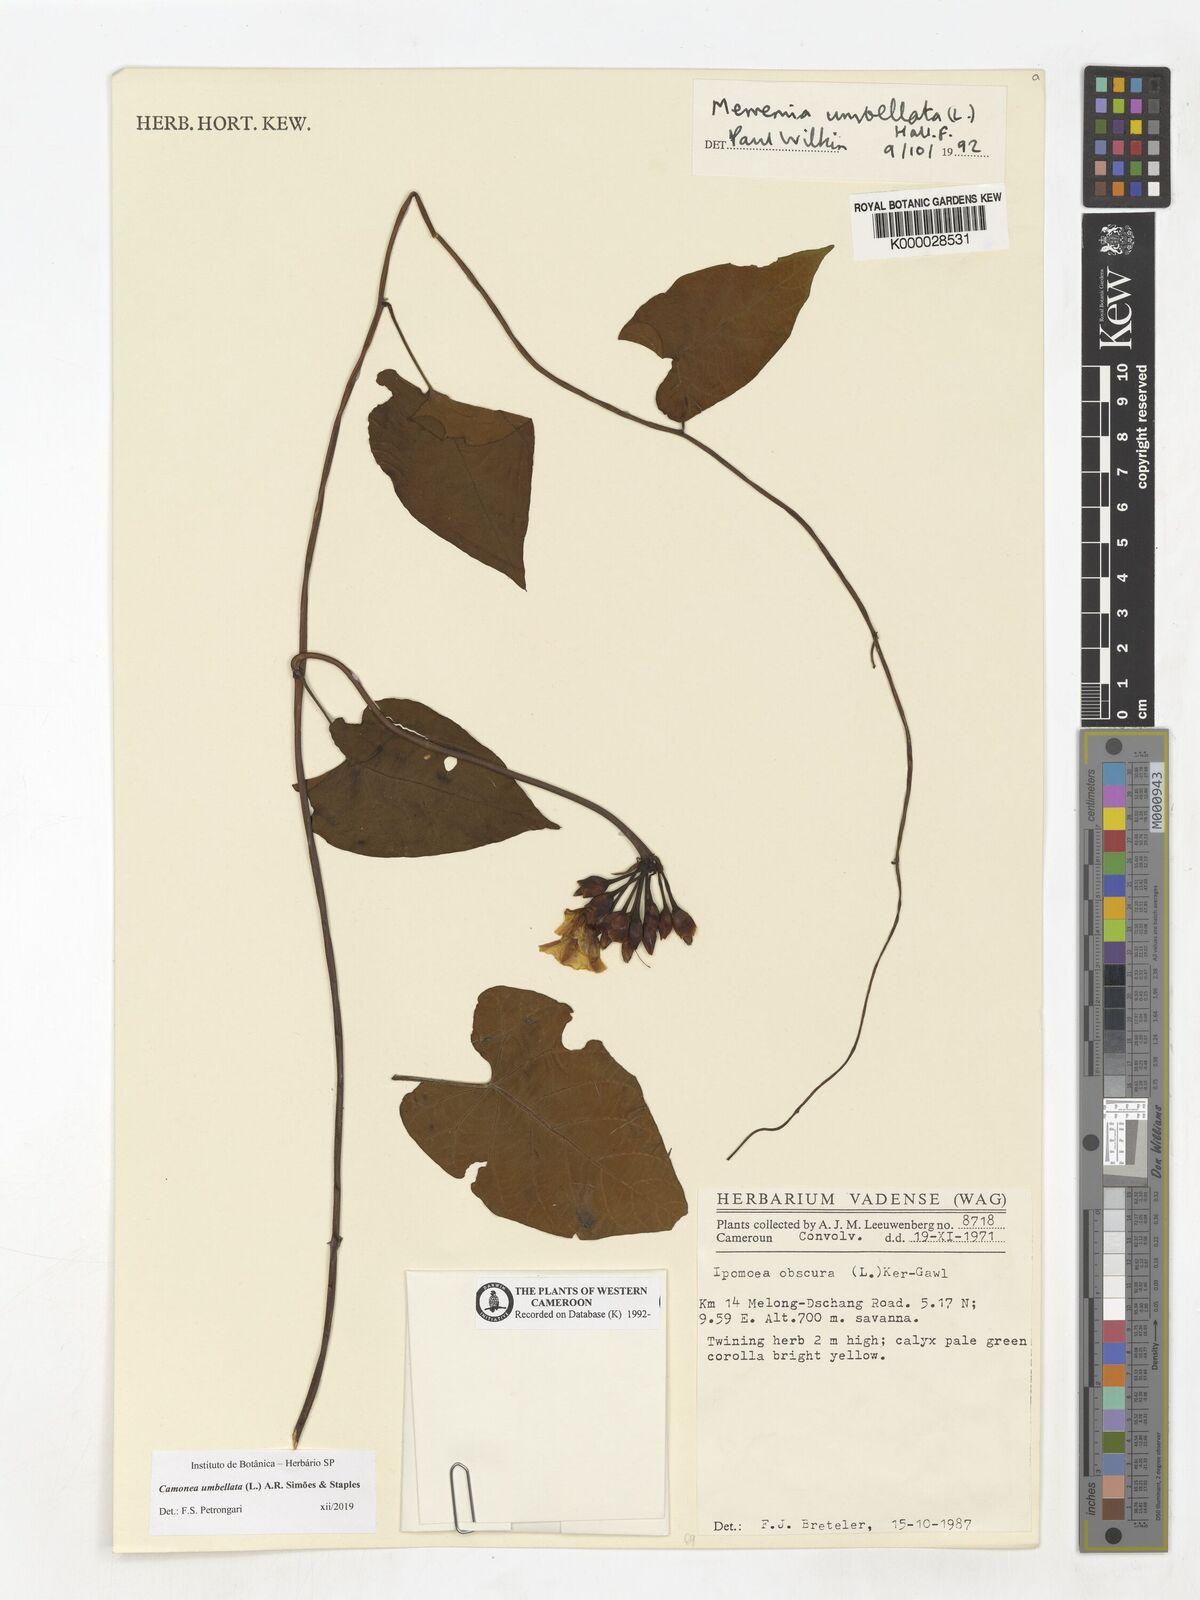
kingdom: Plantae
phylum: Tracheophyta
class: Magnoliopsida
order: Solanales
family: Convolvulaceae
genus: Camonea
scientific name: Camonea umbellata
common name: Hogvine
